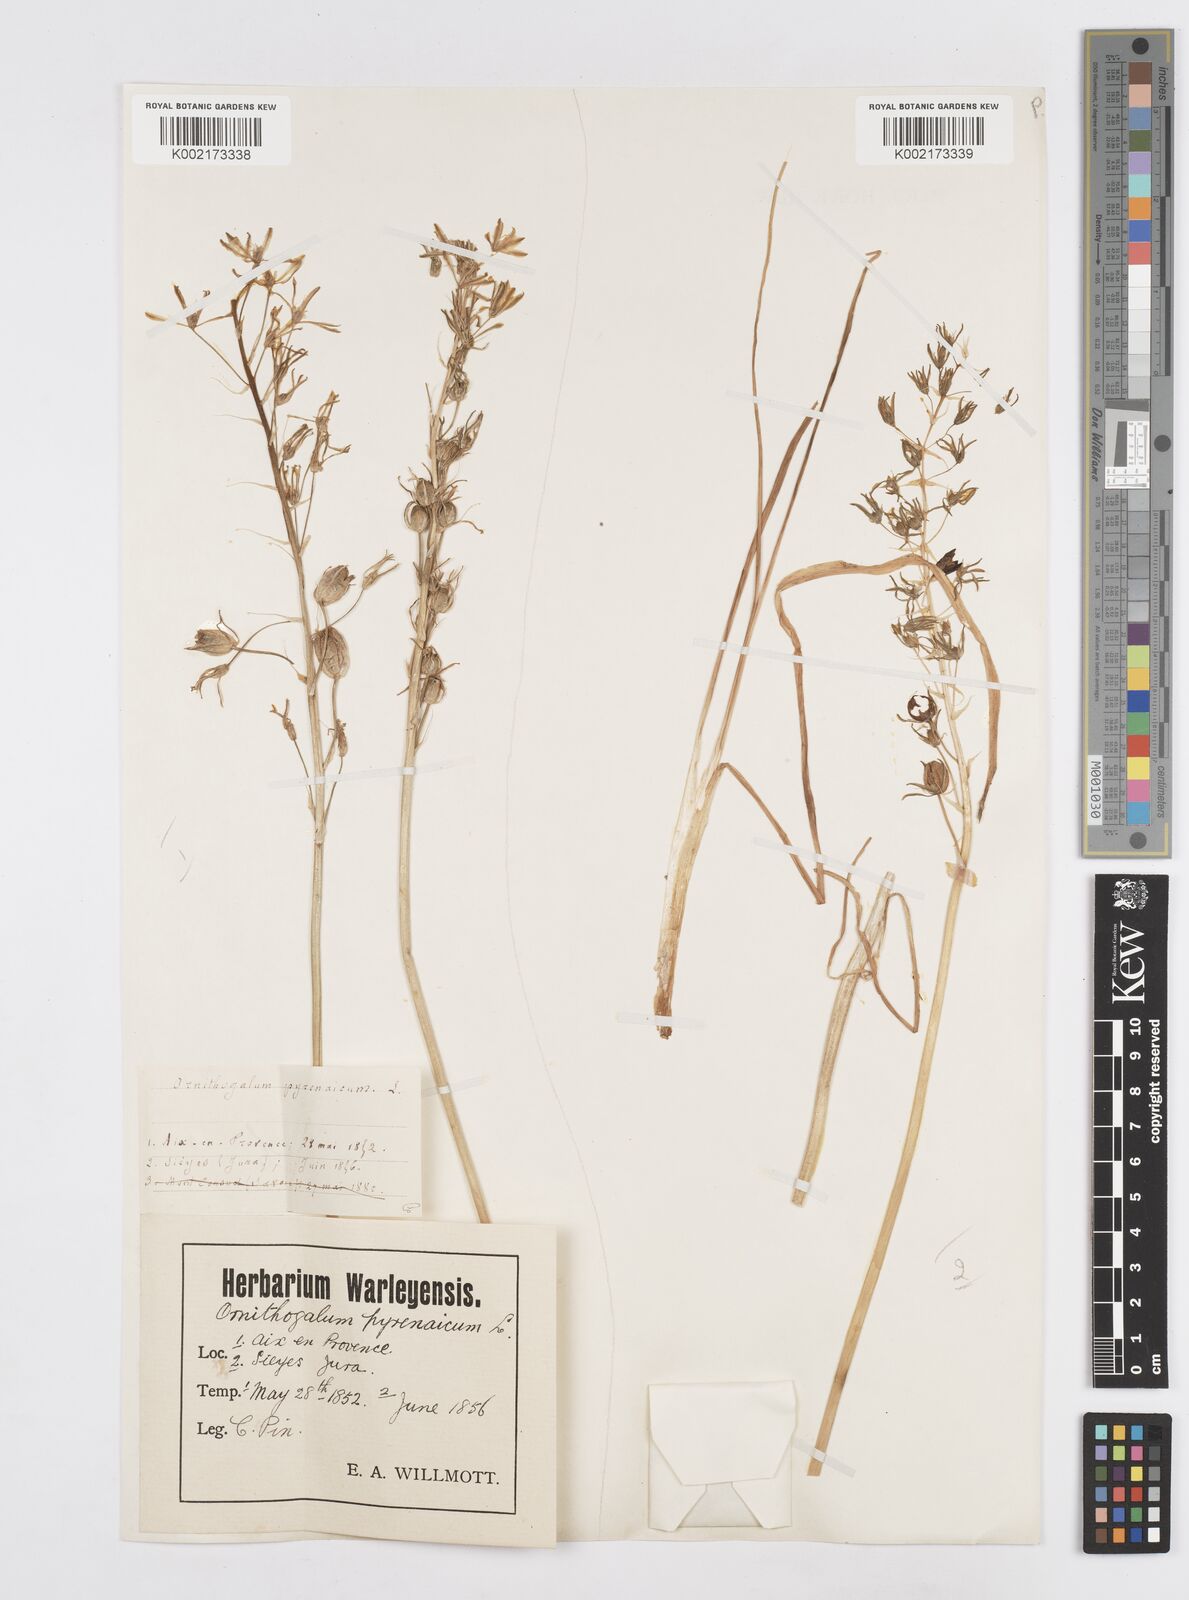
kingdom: Plantae
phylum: Tracheophyta
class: Liliopsida
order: Asparagales
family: Asparagaceae
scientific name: Asparagaceae
